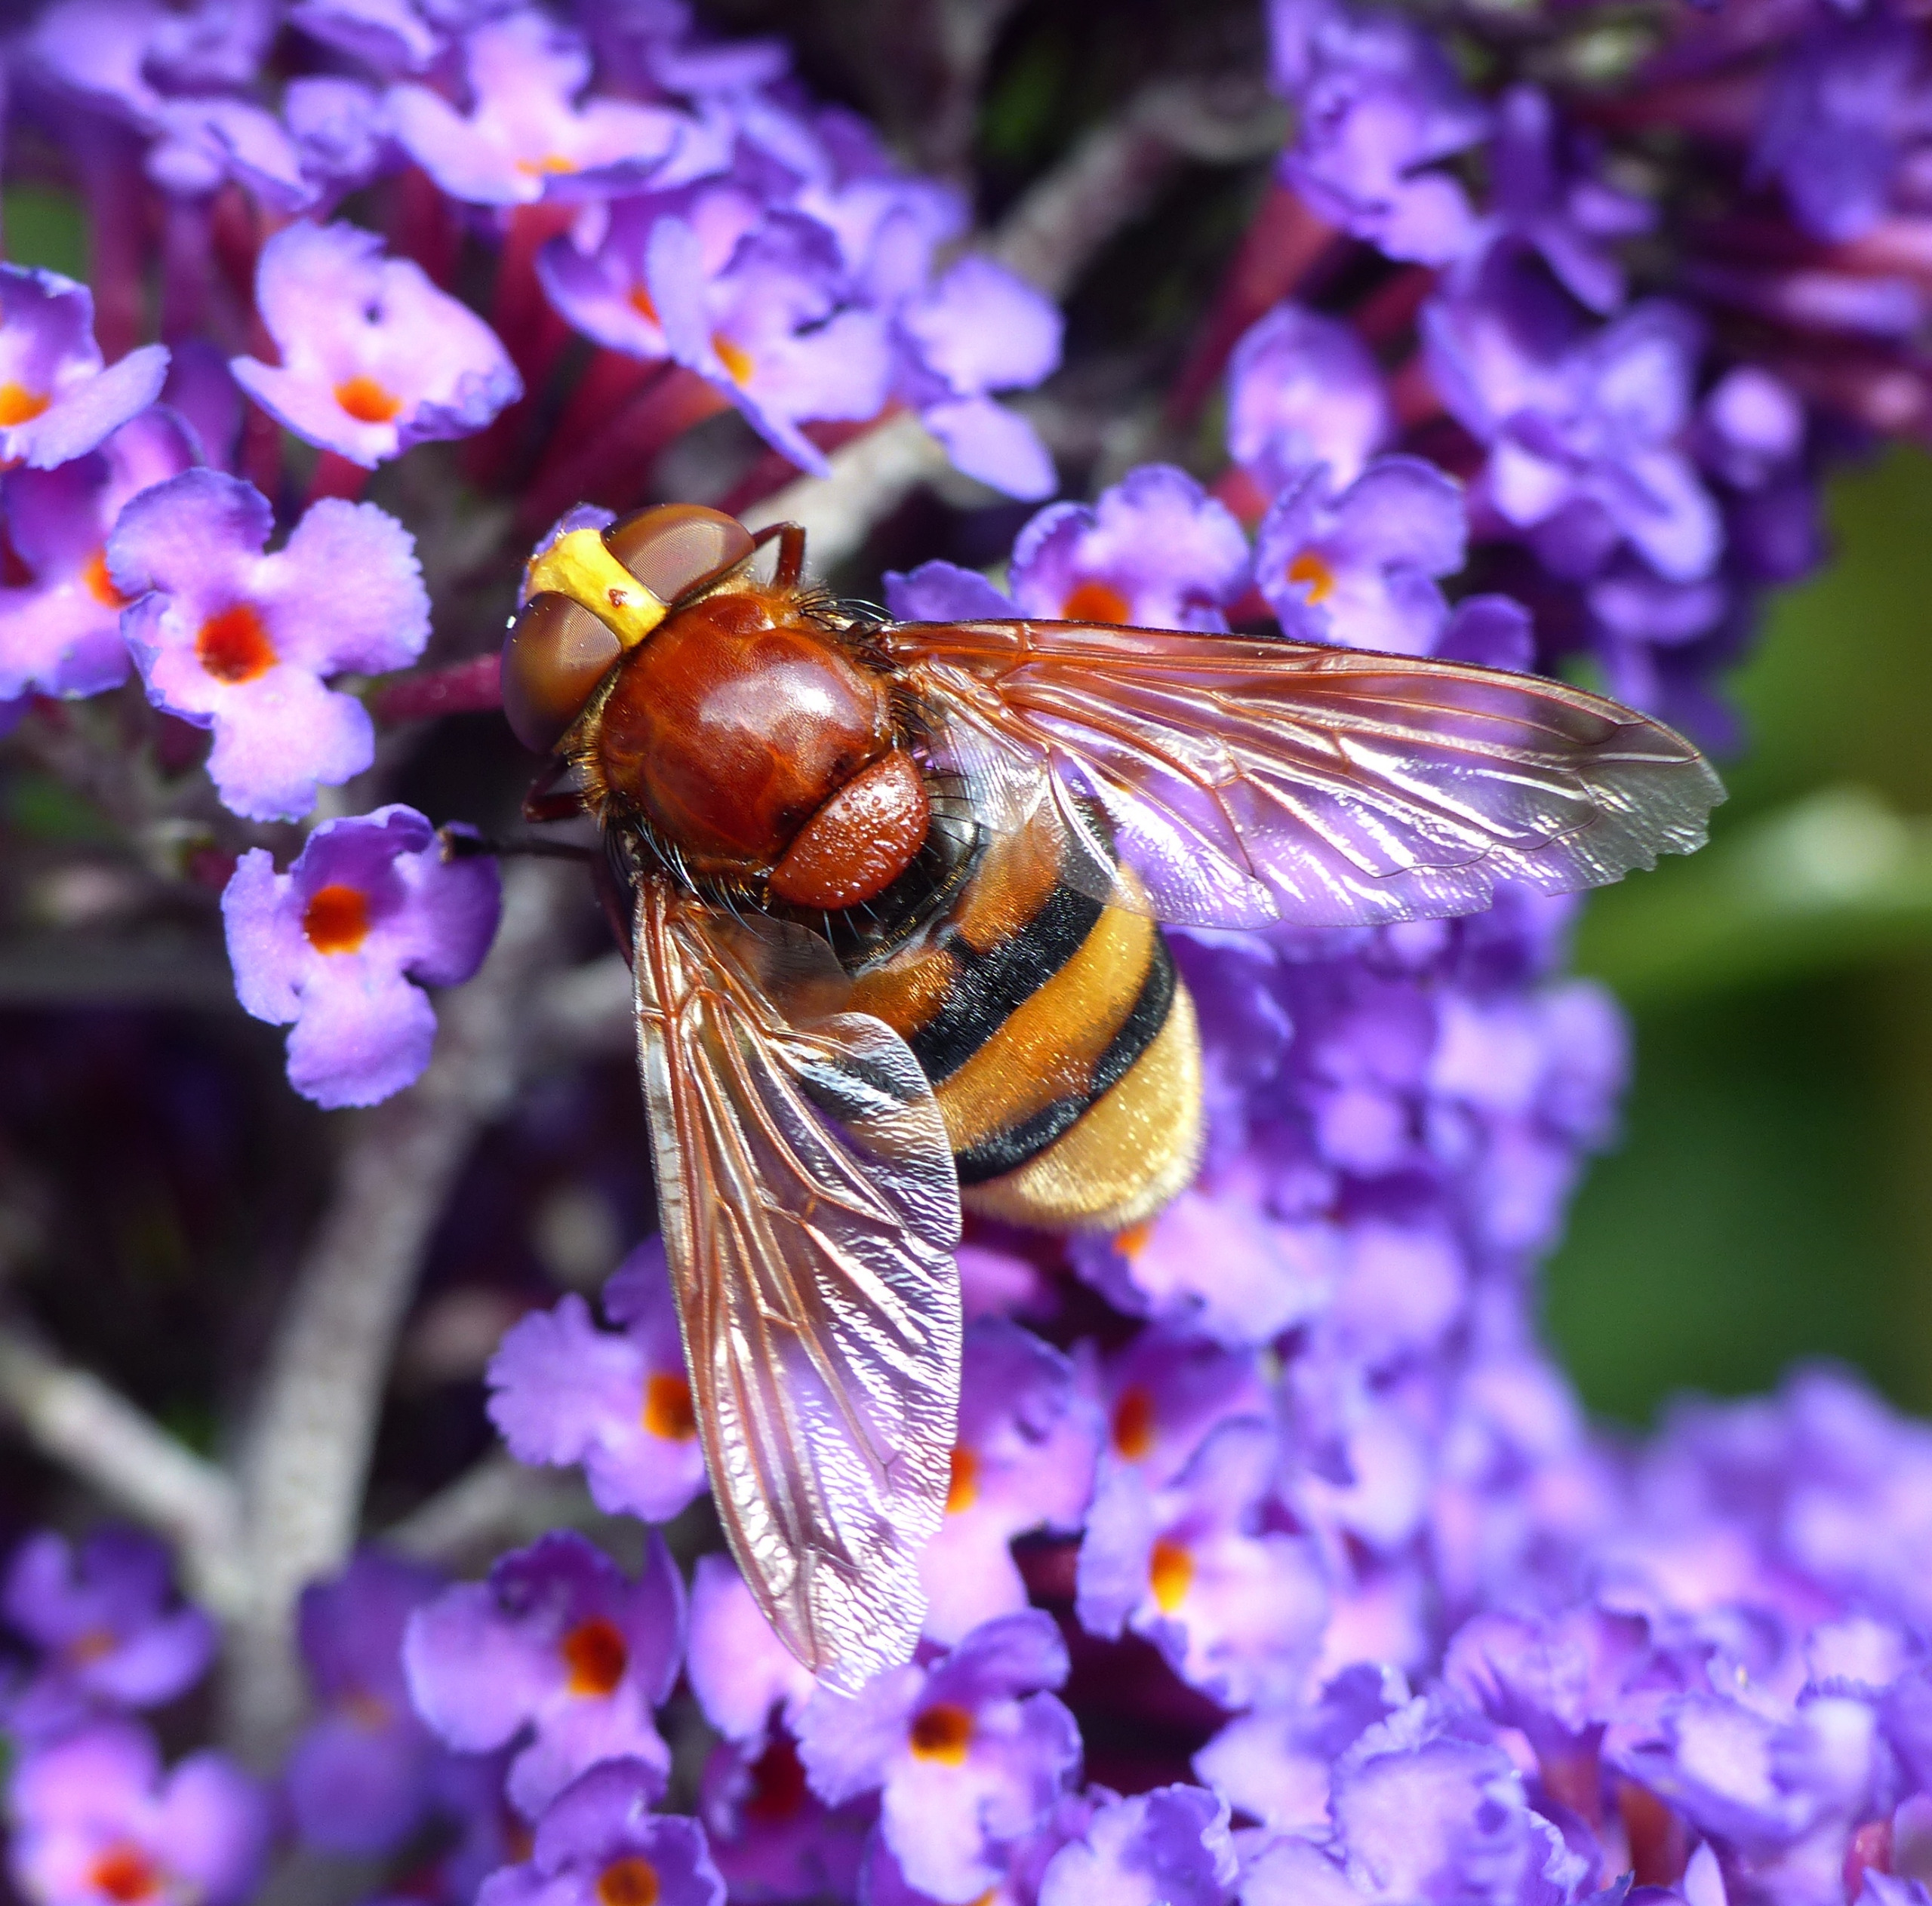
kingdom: Animalia
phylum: Arthropoda
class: Insecta
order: Diptera
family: Syrphidae
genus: Volucella
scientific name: Volucella zonaria
